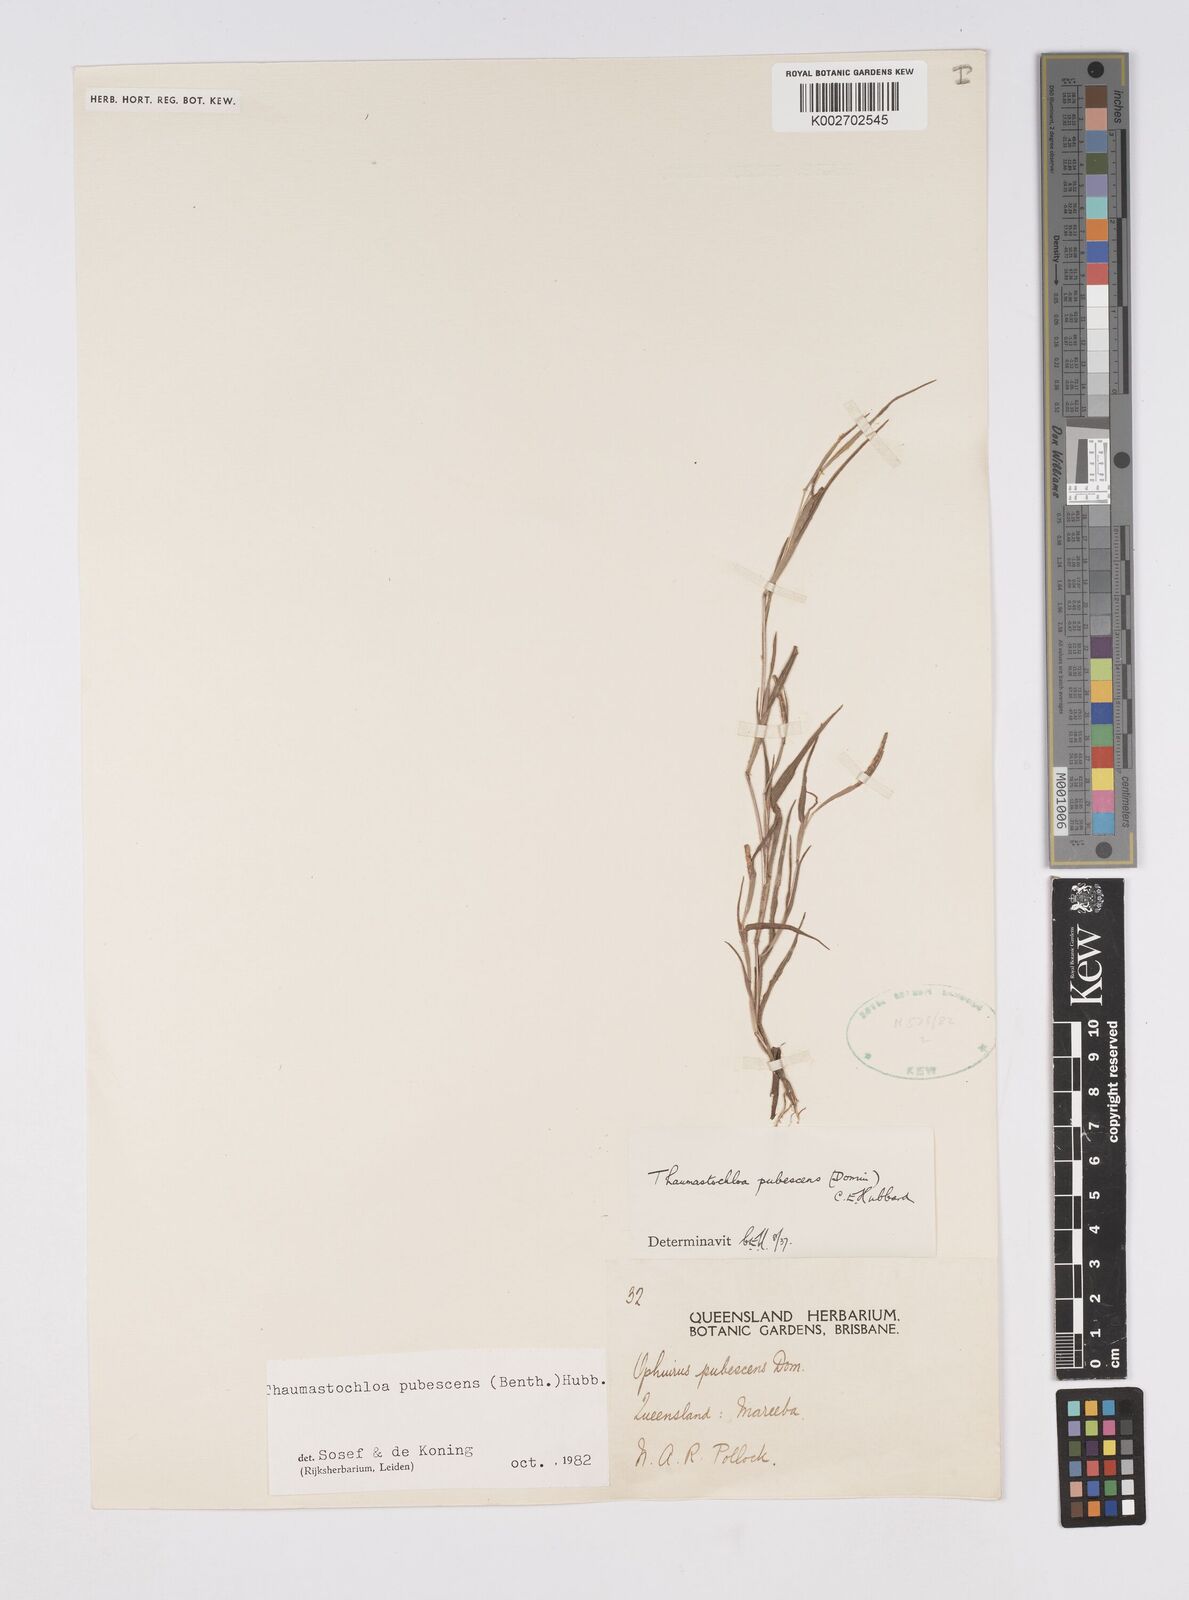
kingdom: Plantae
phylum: Tracheophyta
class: Liliopsida
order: Poales
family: Poaceae
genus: Thaumastochloa
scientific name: Thaumastochloa pubescens
